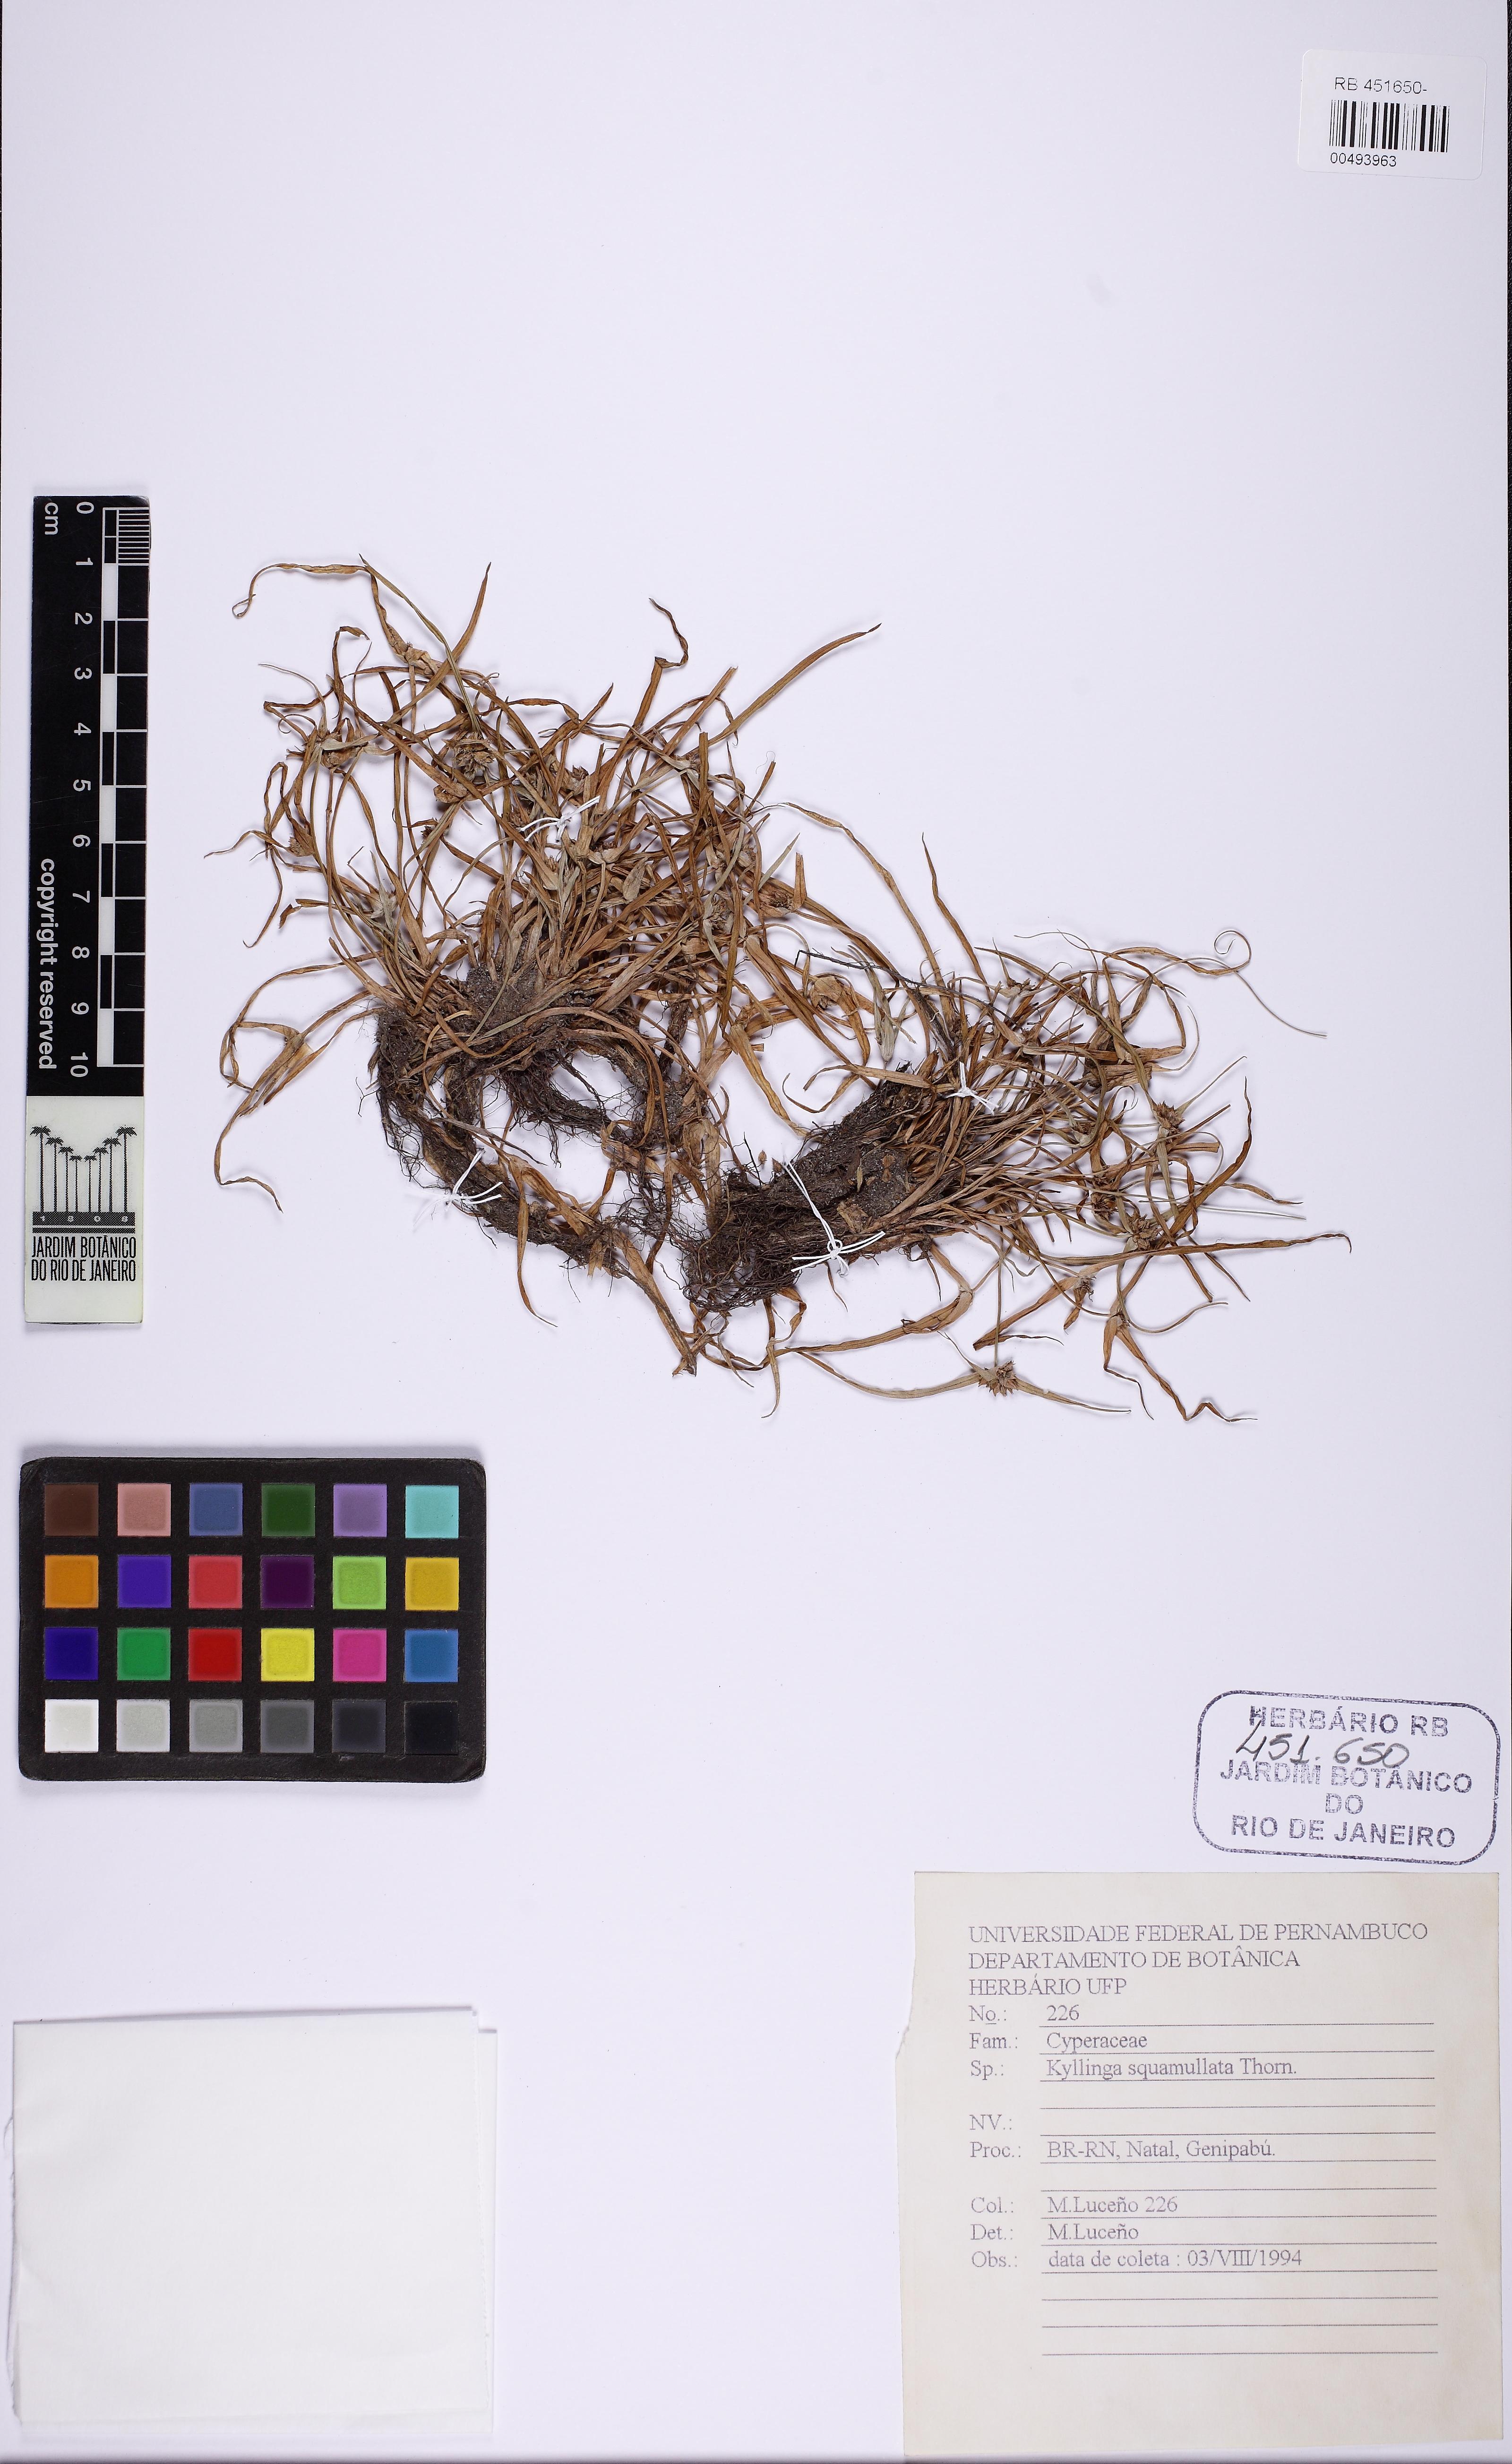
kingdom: Plantae
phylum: Tracheophyta
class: Liliopsida
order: Poales
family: Cyperaceae
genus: Cyperus
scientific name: Cyperus metzii
